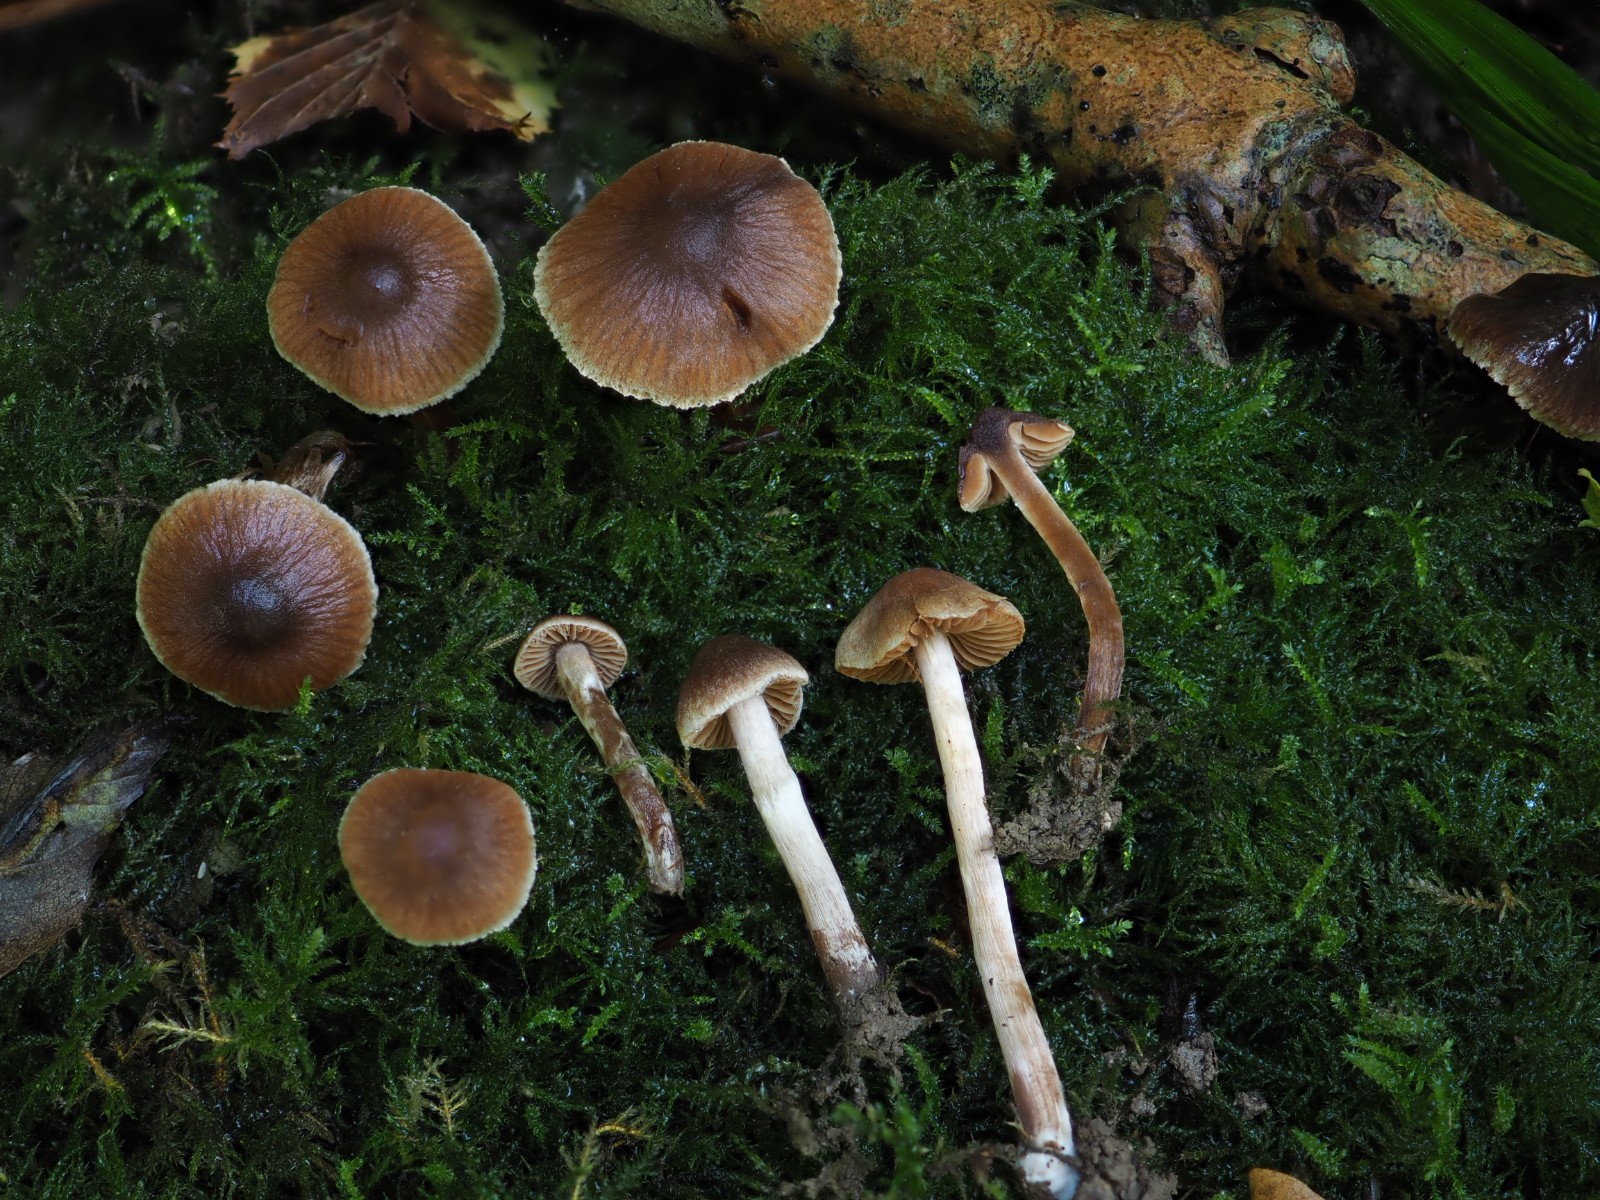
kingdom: Fungi
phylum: Basidiomycota
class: Agaricomycetes
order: Agaricales
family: Cortinariaceae
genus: Cortinarius
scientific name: Cortinarius megacystidiosus
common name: lavbæltet slørhat
